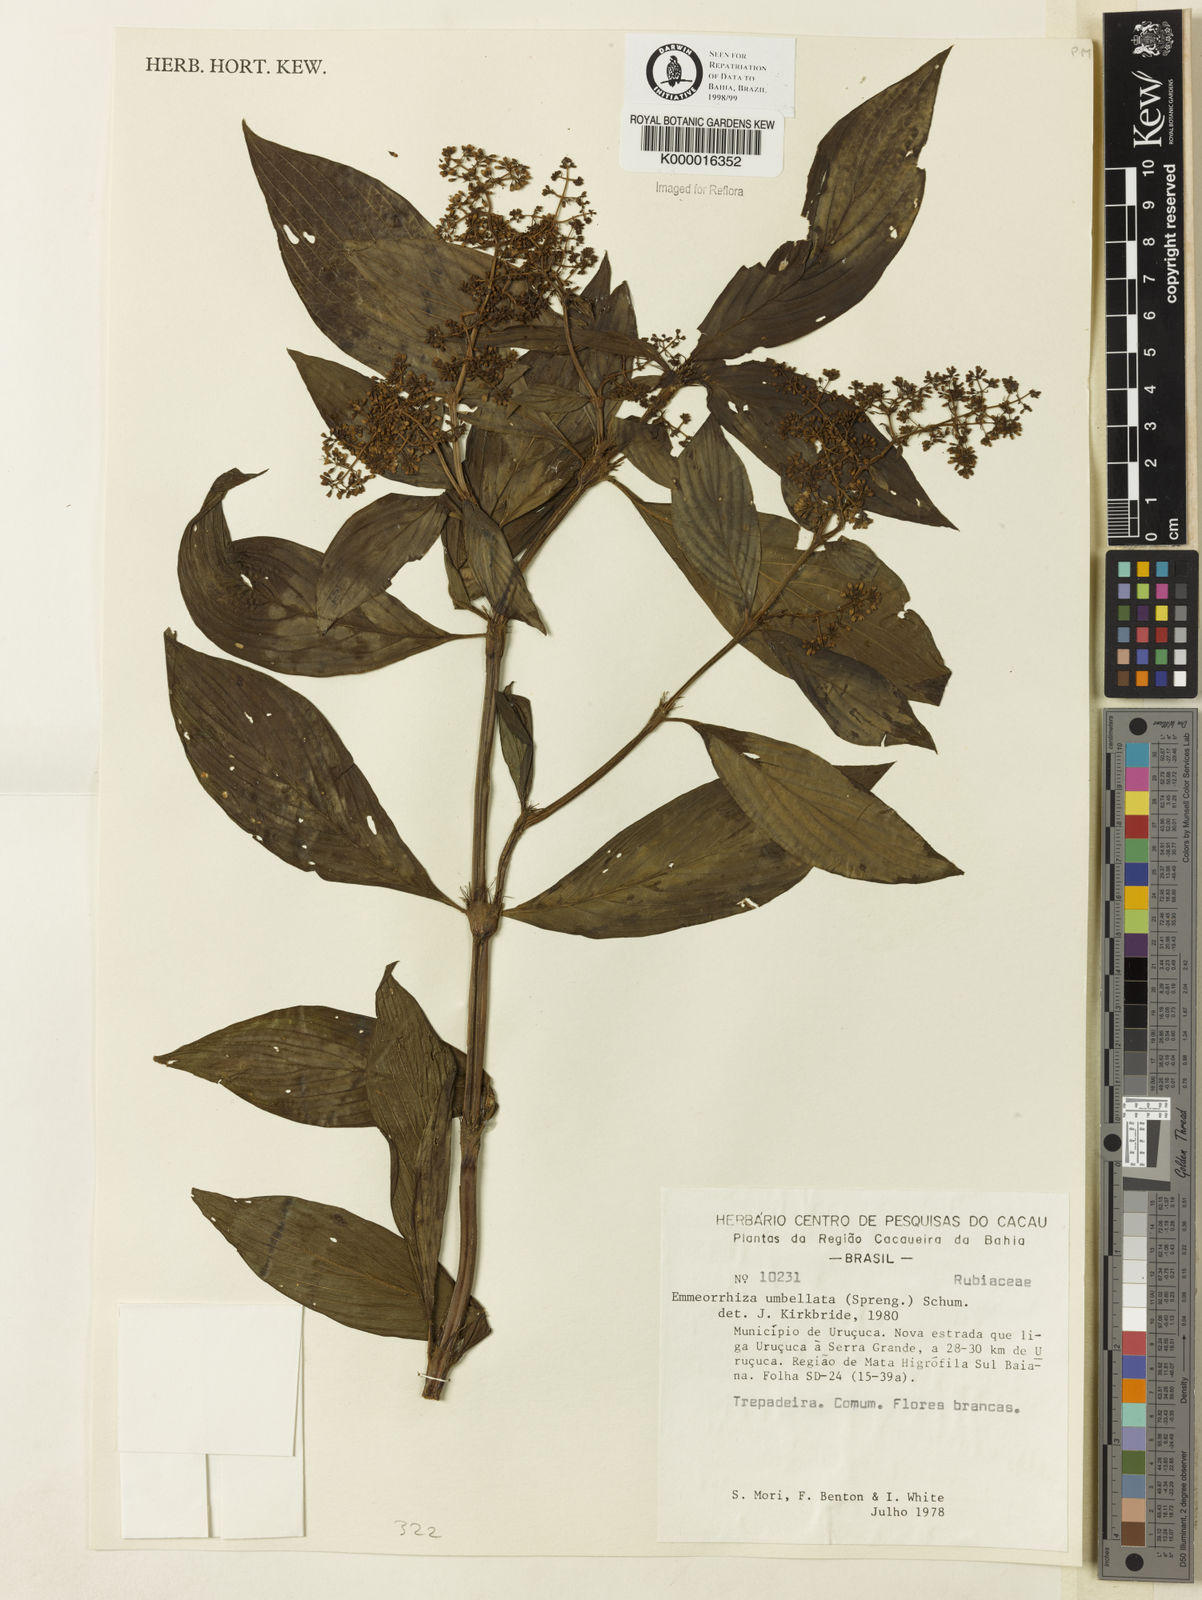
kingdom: Plantae
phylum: Tracheophyta
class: Magnoliopsida
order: Gentianales
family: Rubiaceae
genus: Emmeorhiza
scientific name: Emmeorhiza umbellata
